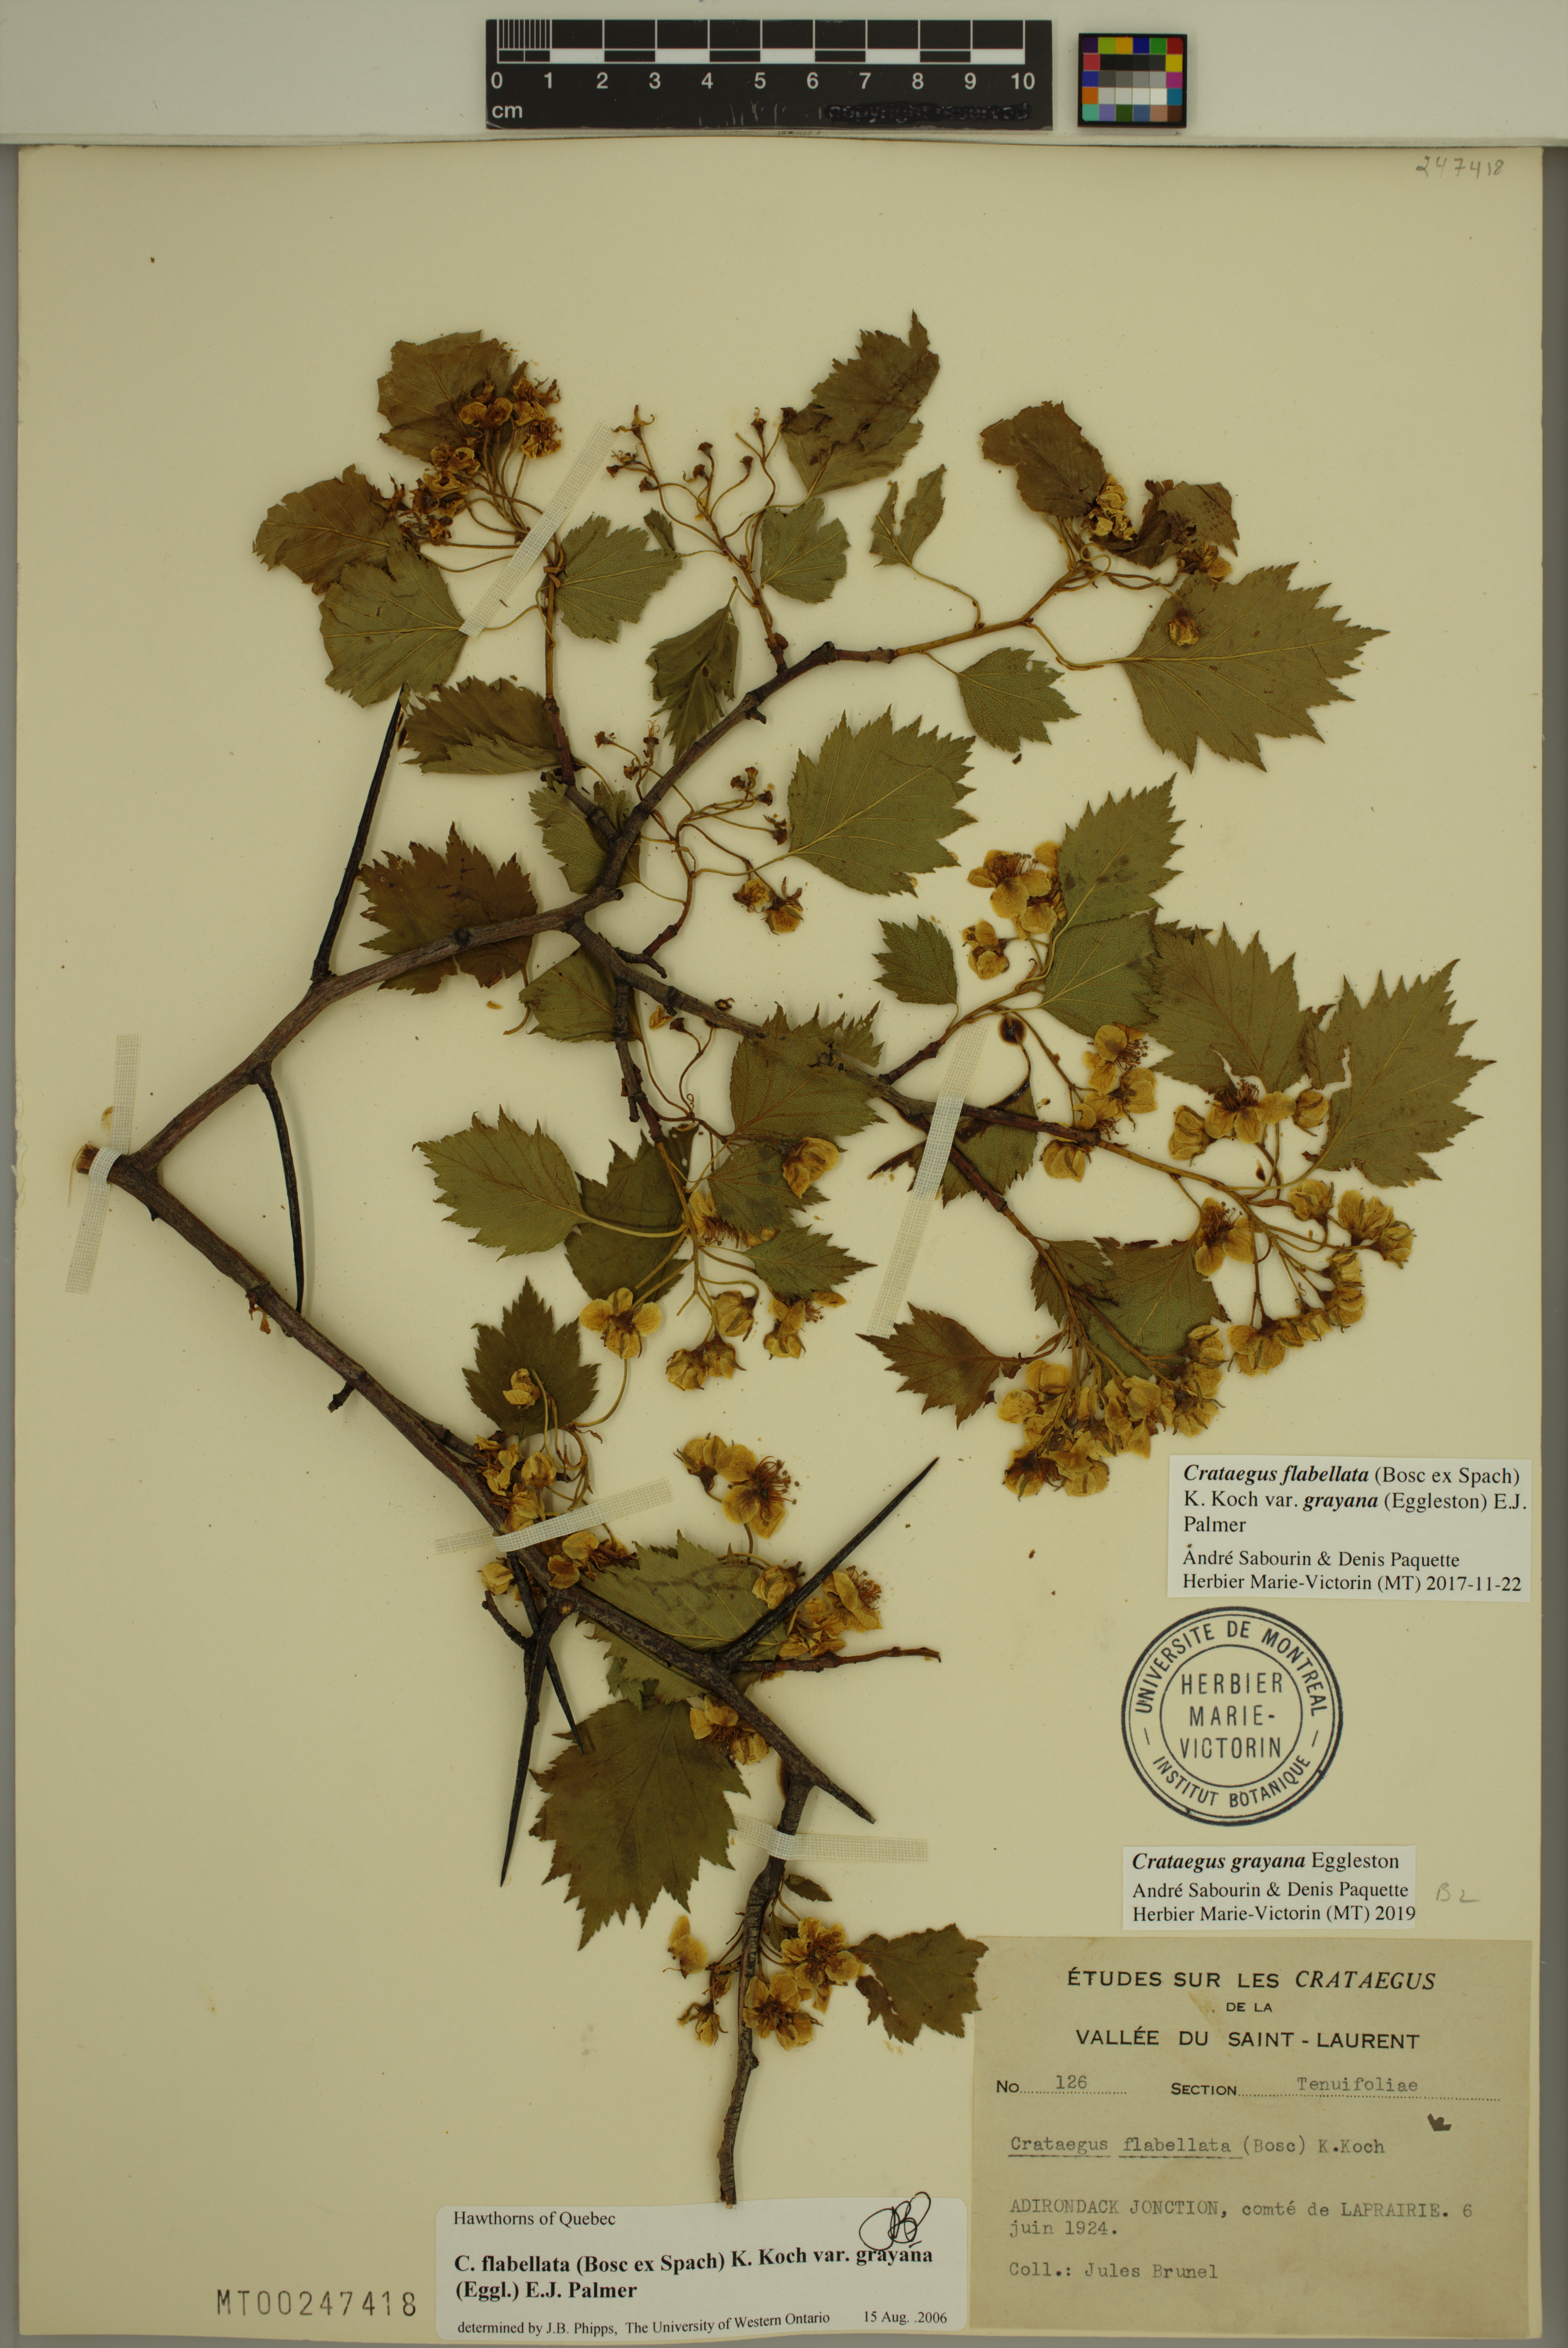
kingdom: Plantae
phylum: Tracheophyta
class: Magnoliopsida
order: Rosales
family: Rosaceae
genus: Crataegus
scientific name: Crataegus schuettei
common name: Schuette's hawthorn
